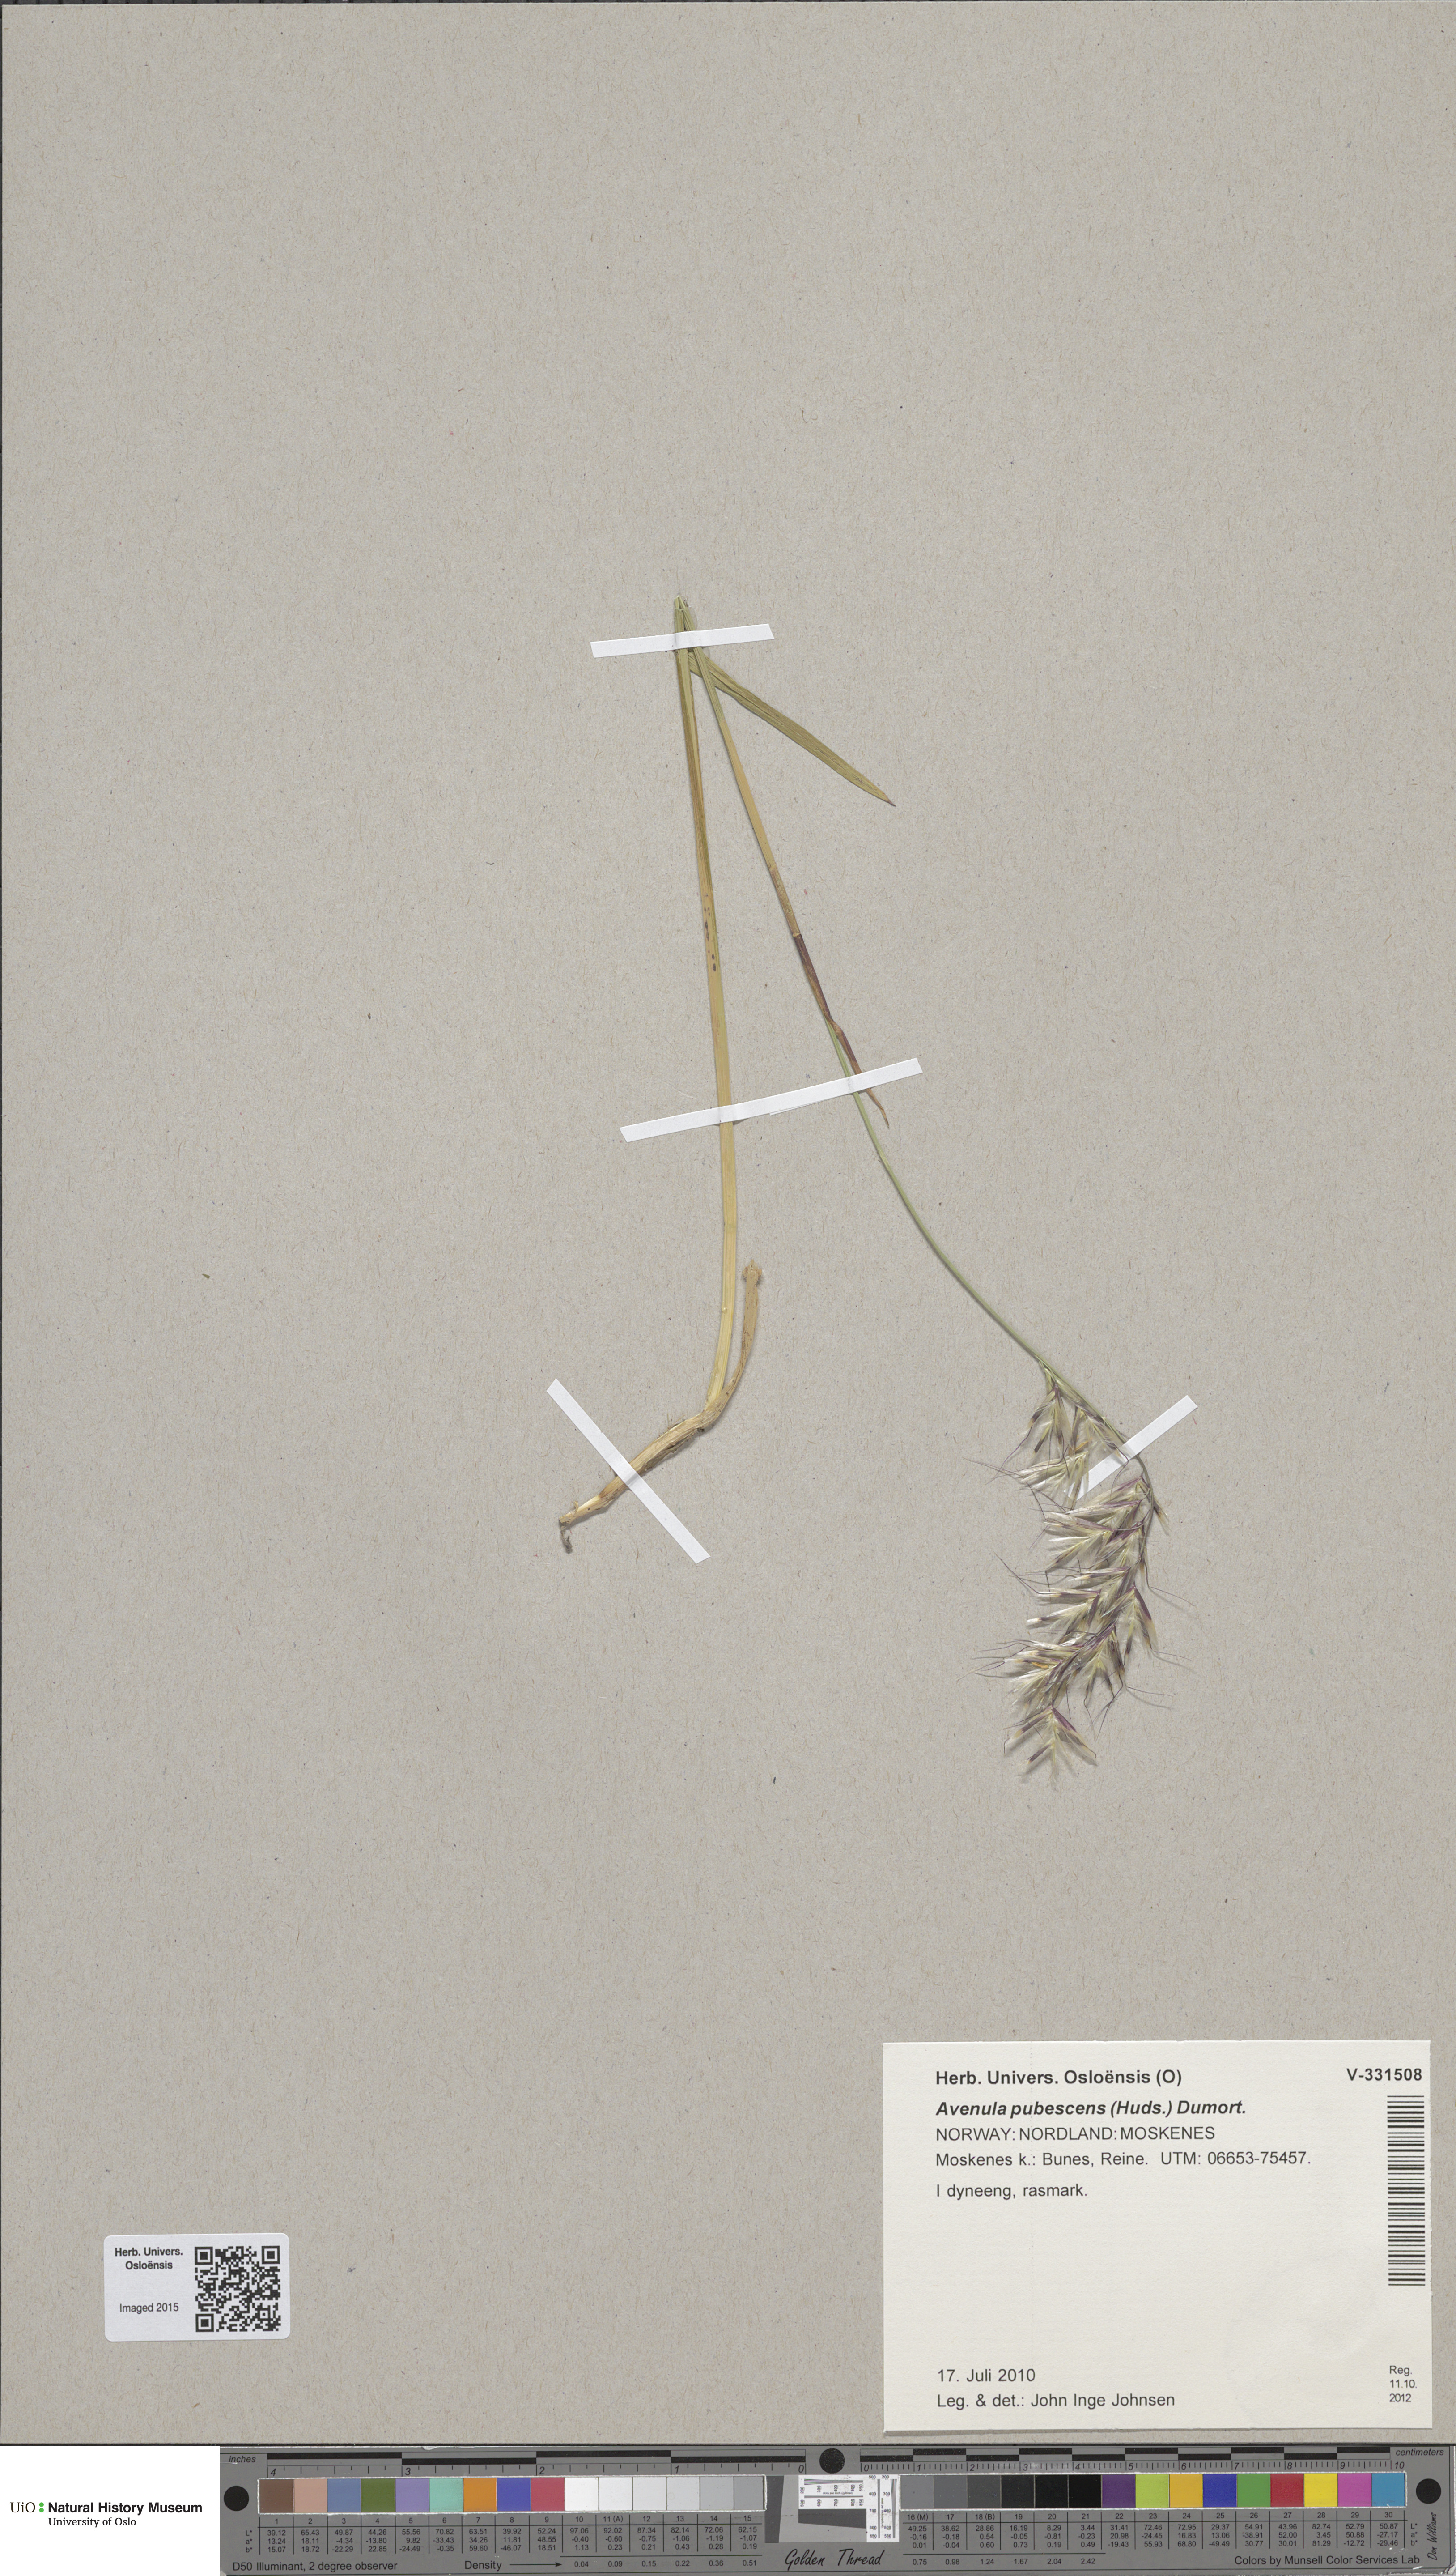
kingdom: Plantae
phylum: Tracheophyta
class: Liliopsida
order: Poales
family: Poaceae
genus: Avenula
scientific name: Avenula pubescens
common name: Downy alpine oatgrass
